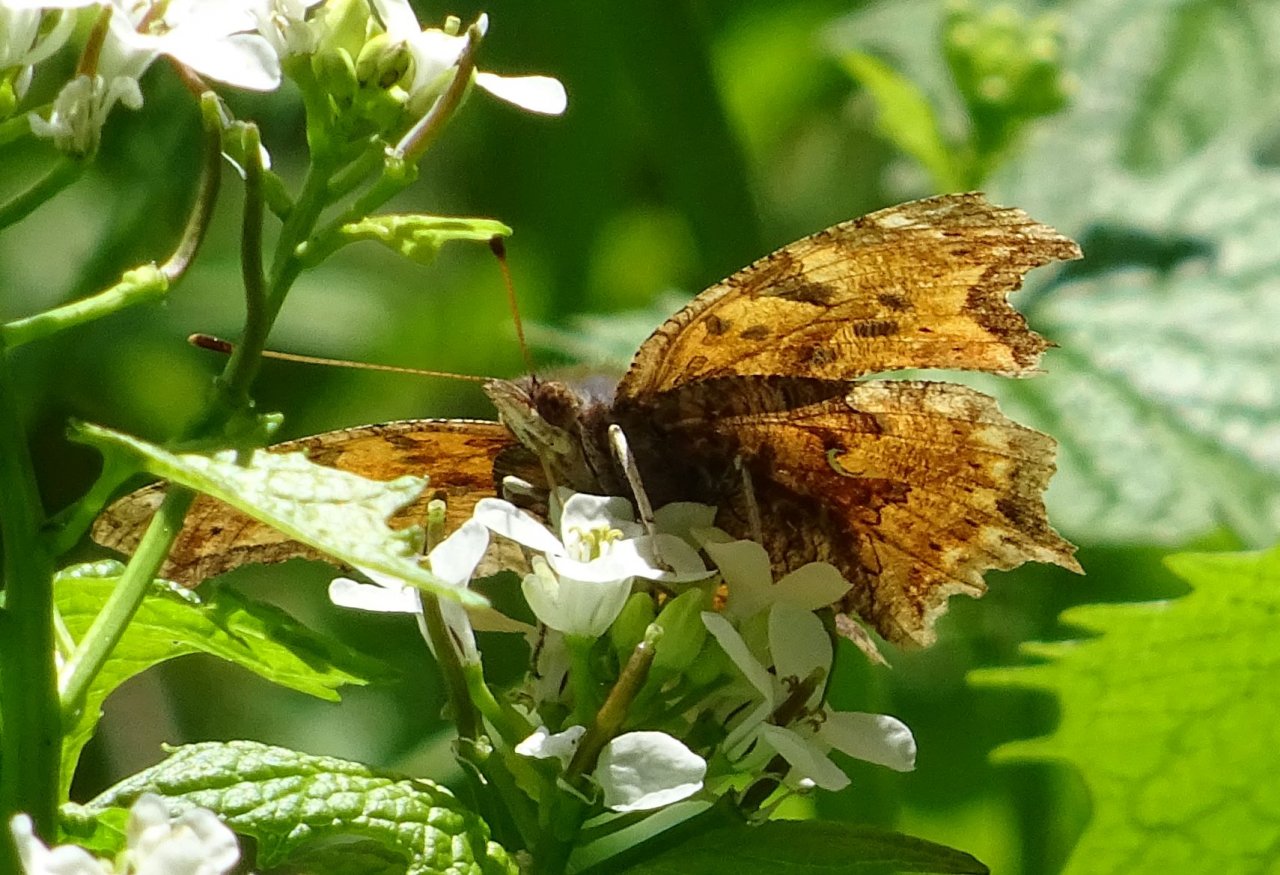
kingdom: Animalia
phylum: Arthropoda
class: Insecta
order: Lepidoptera
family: Nymphalidae
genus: Polygonia
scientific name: Polygonia comma
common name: Eastern Comma
